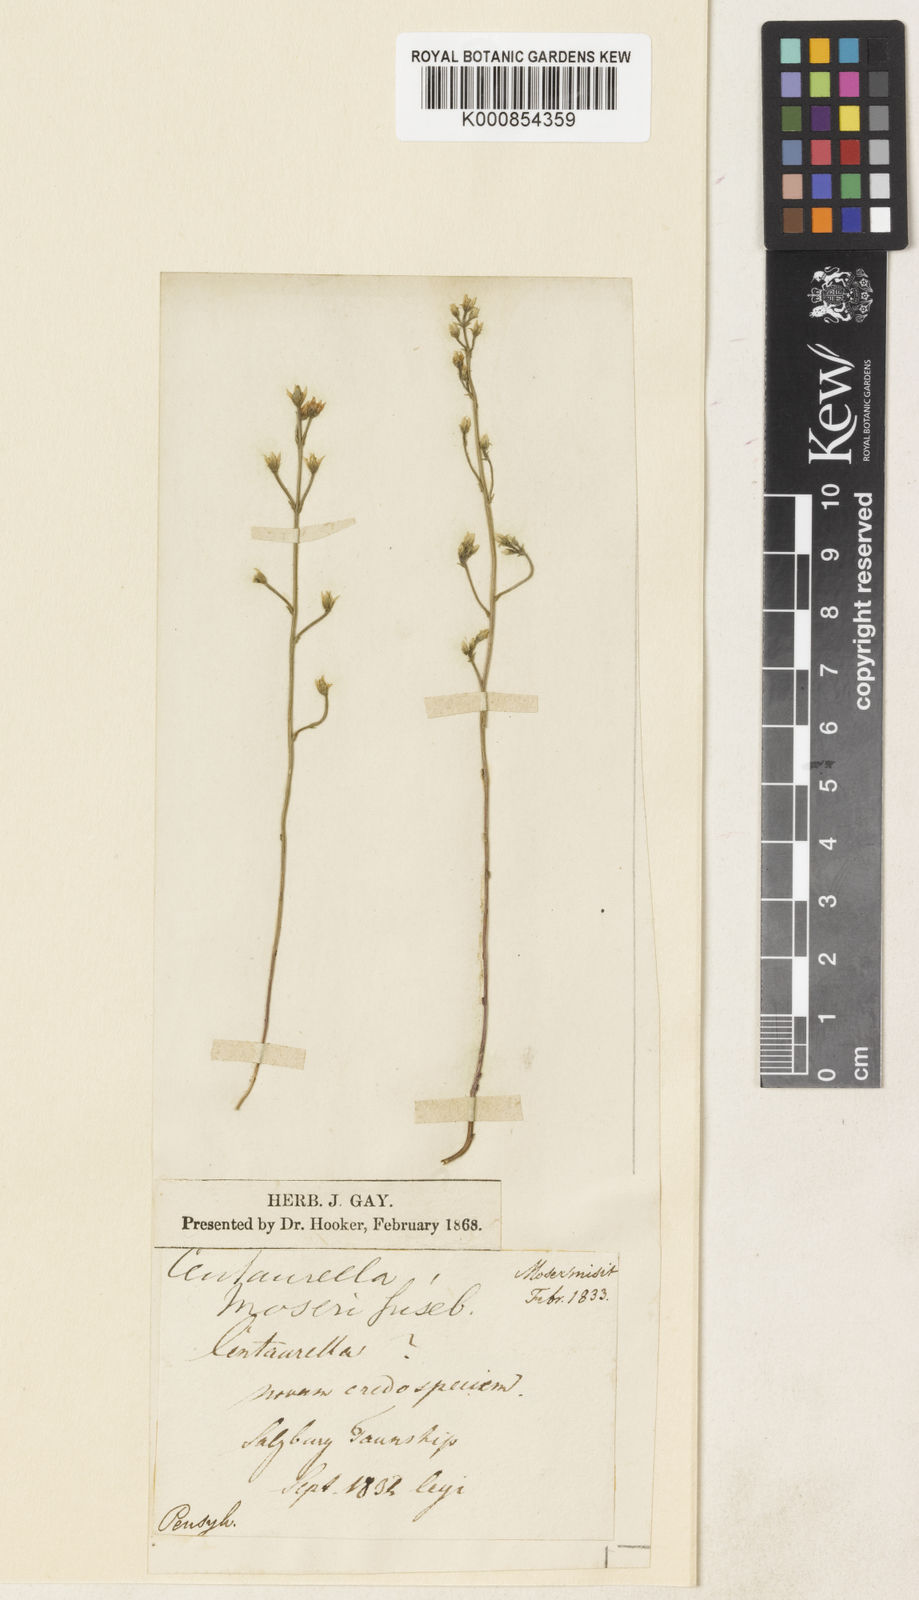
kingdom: Plantae
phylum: Tracheophyta
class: Magnoliopsida
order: Gentianales
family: Gentianaceae
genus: Bartonia
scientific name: Bartonia virginica
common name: Yellow bartonia
